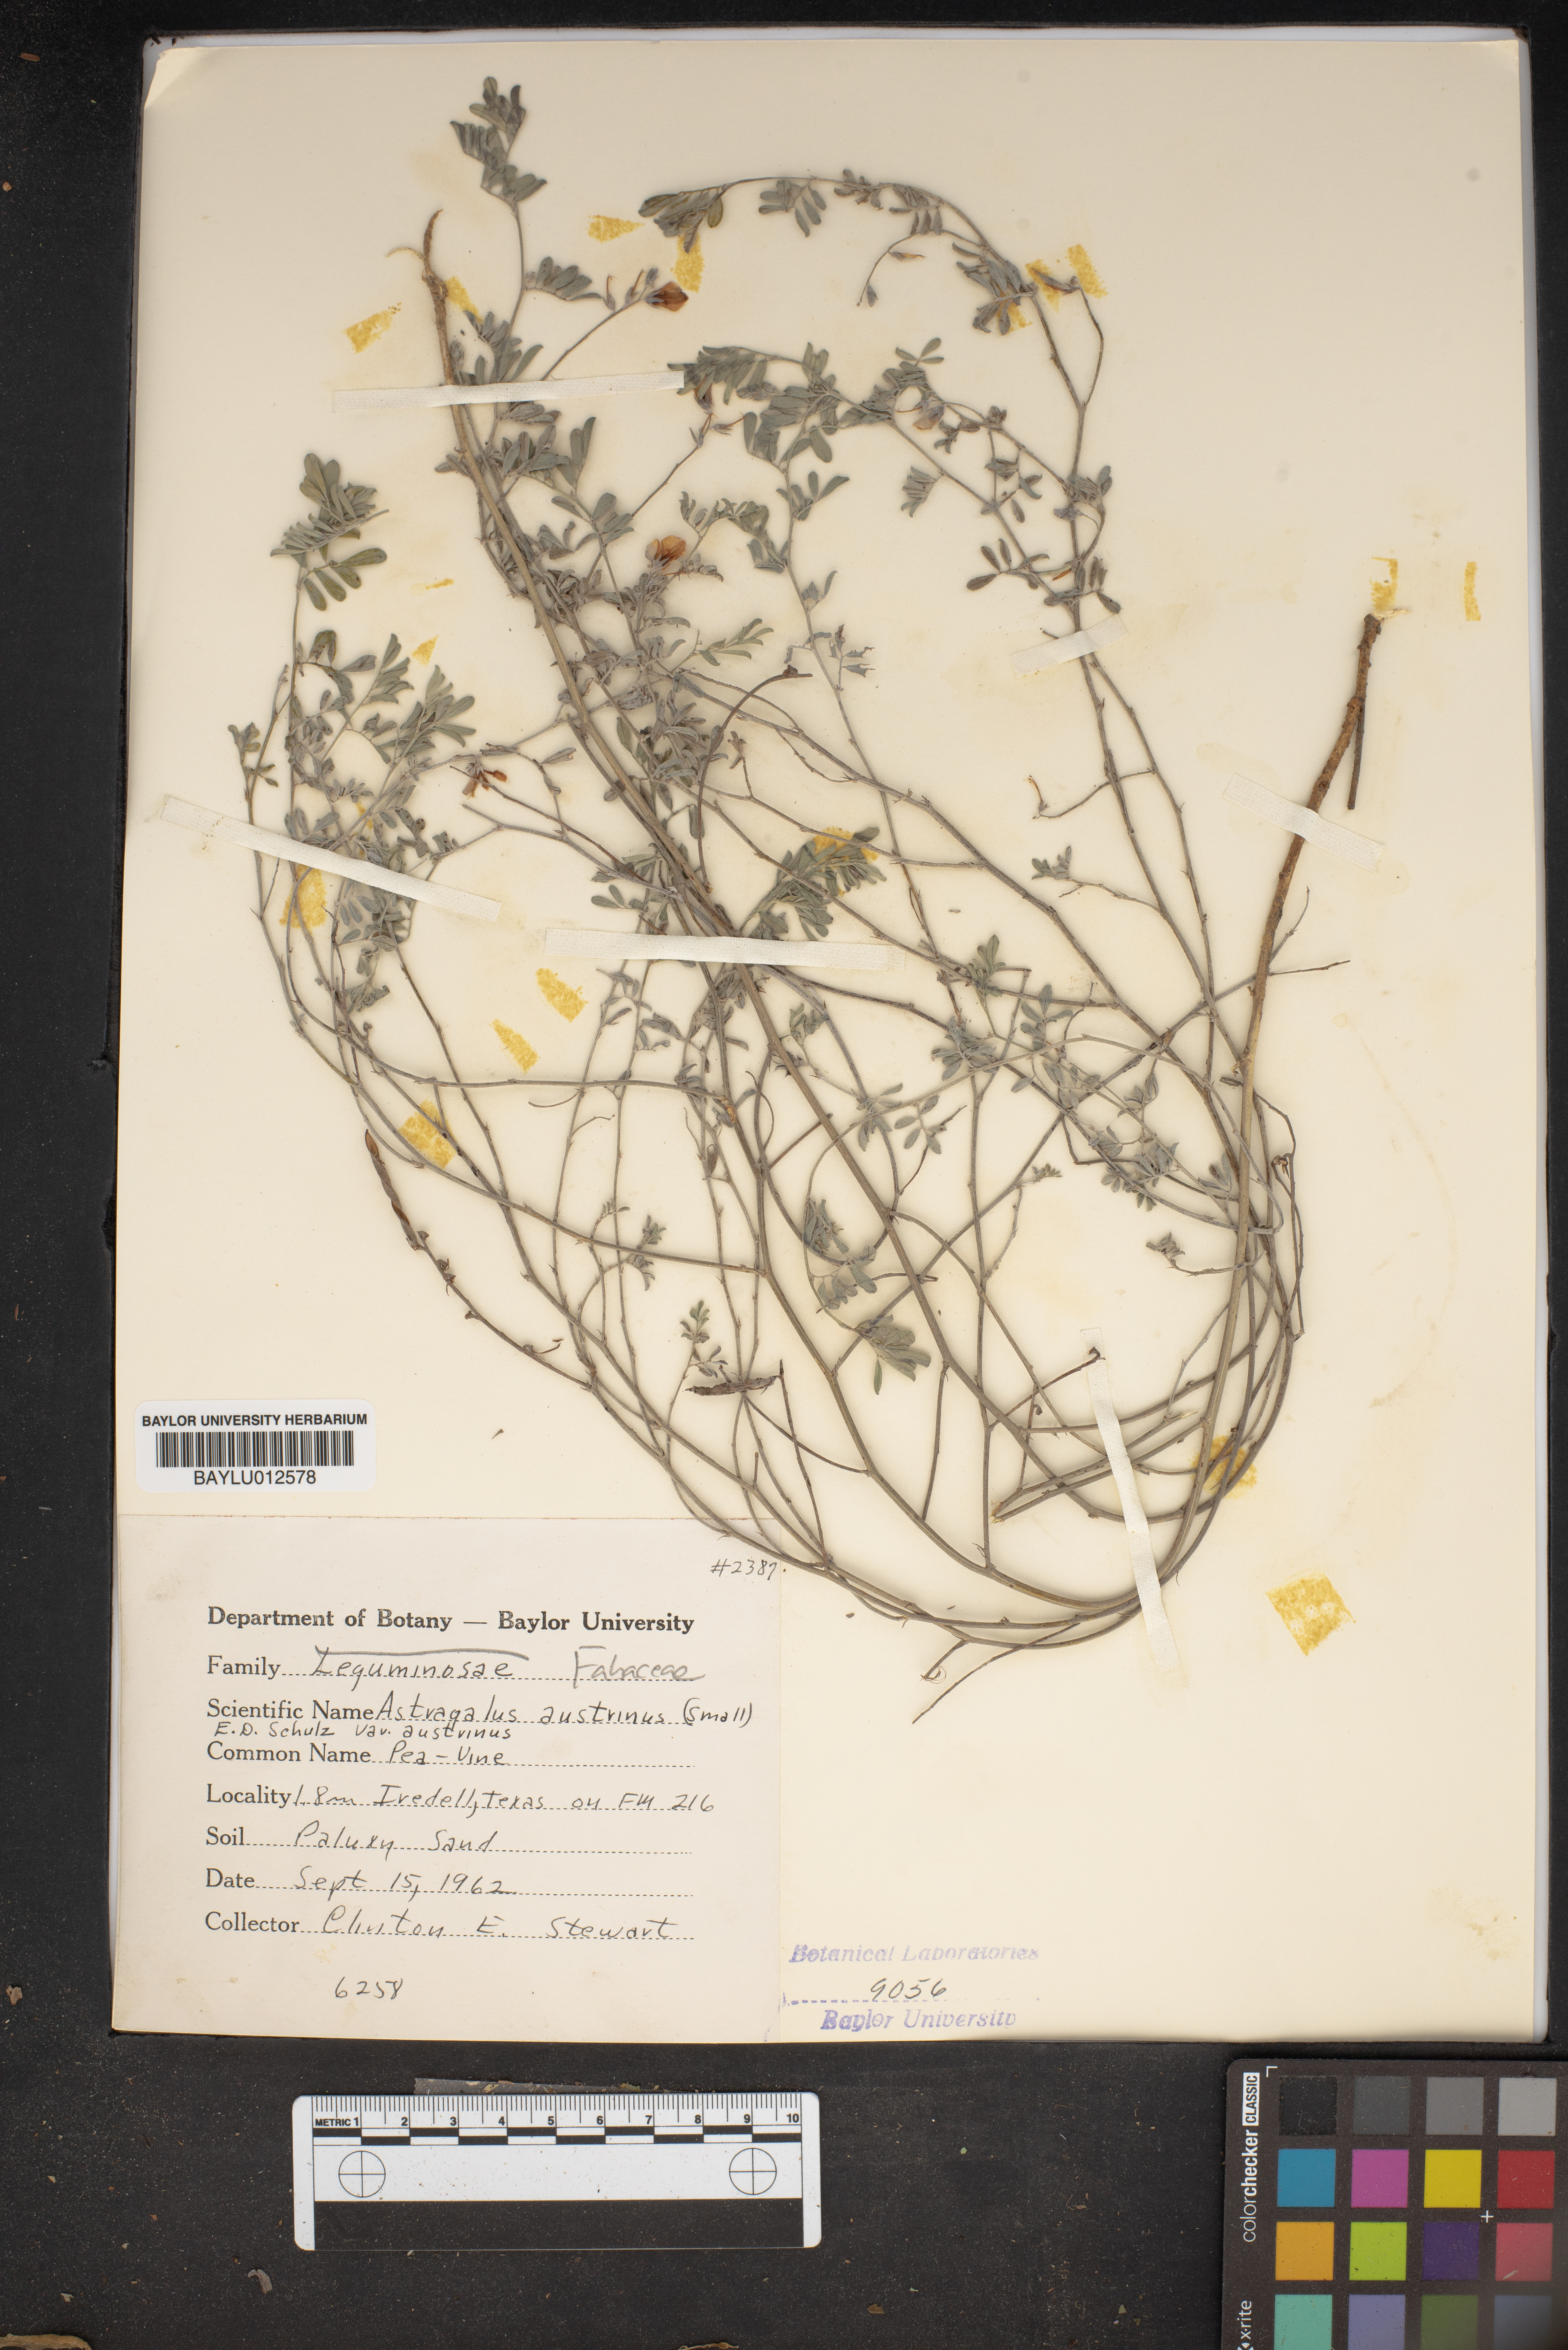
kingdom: Plantae
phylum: Tracheophyta
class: Magnoliopsida
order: Fabales
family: Fabaceae
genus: Astragalus
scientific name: Astragalus nuttallianus
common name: Smallflowered milkvetch
